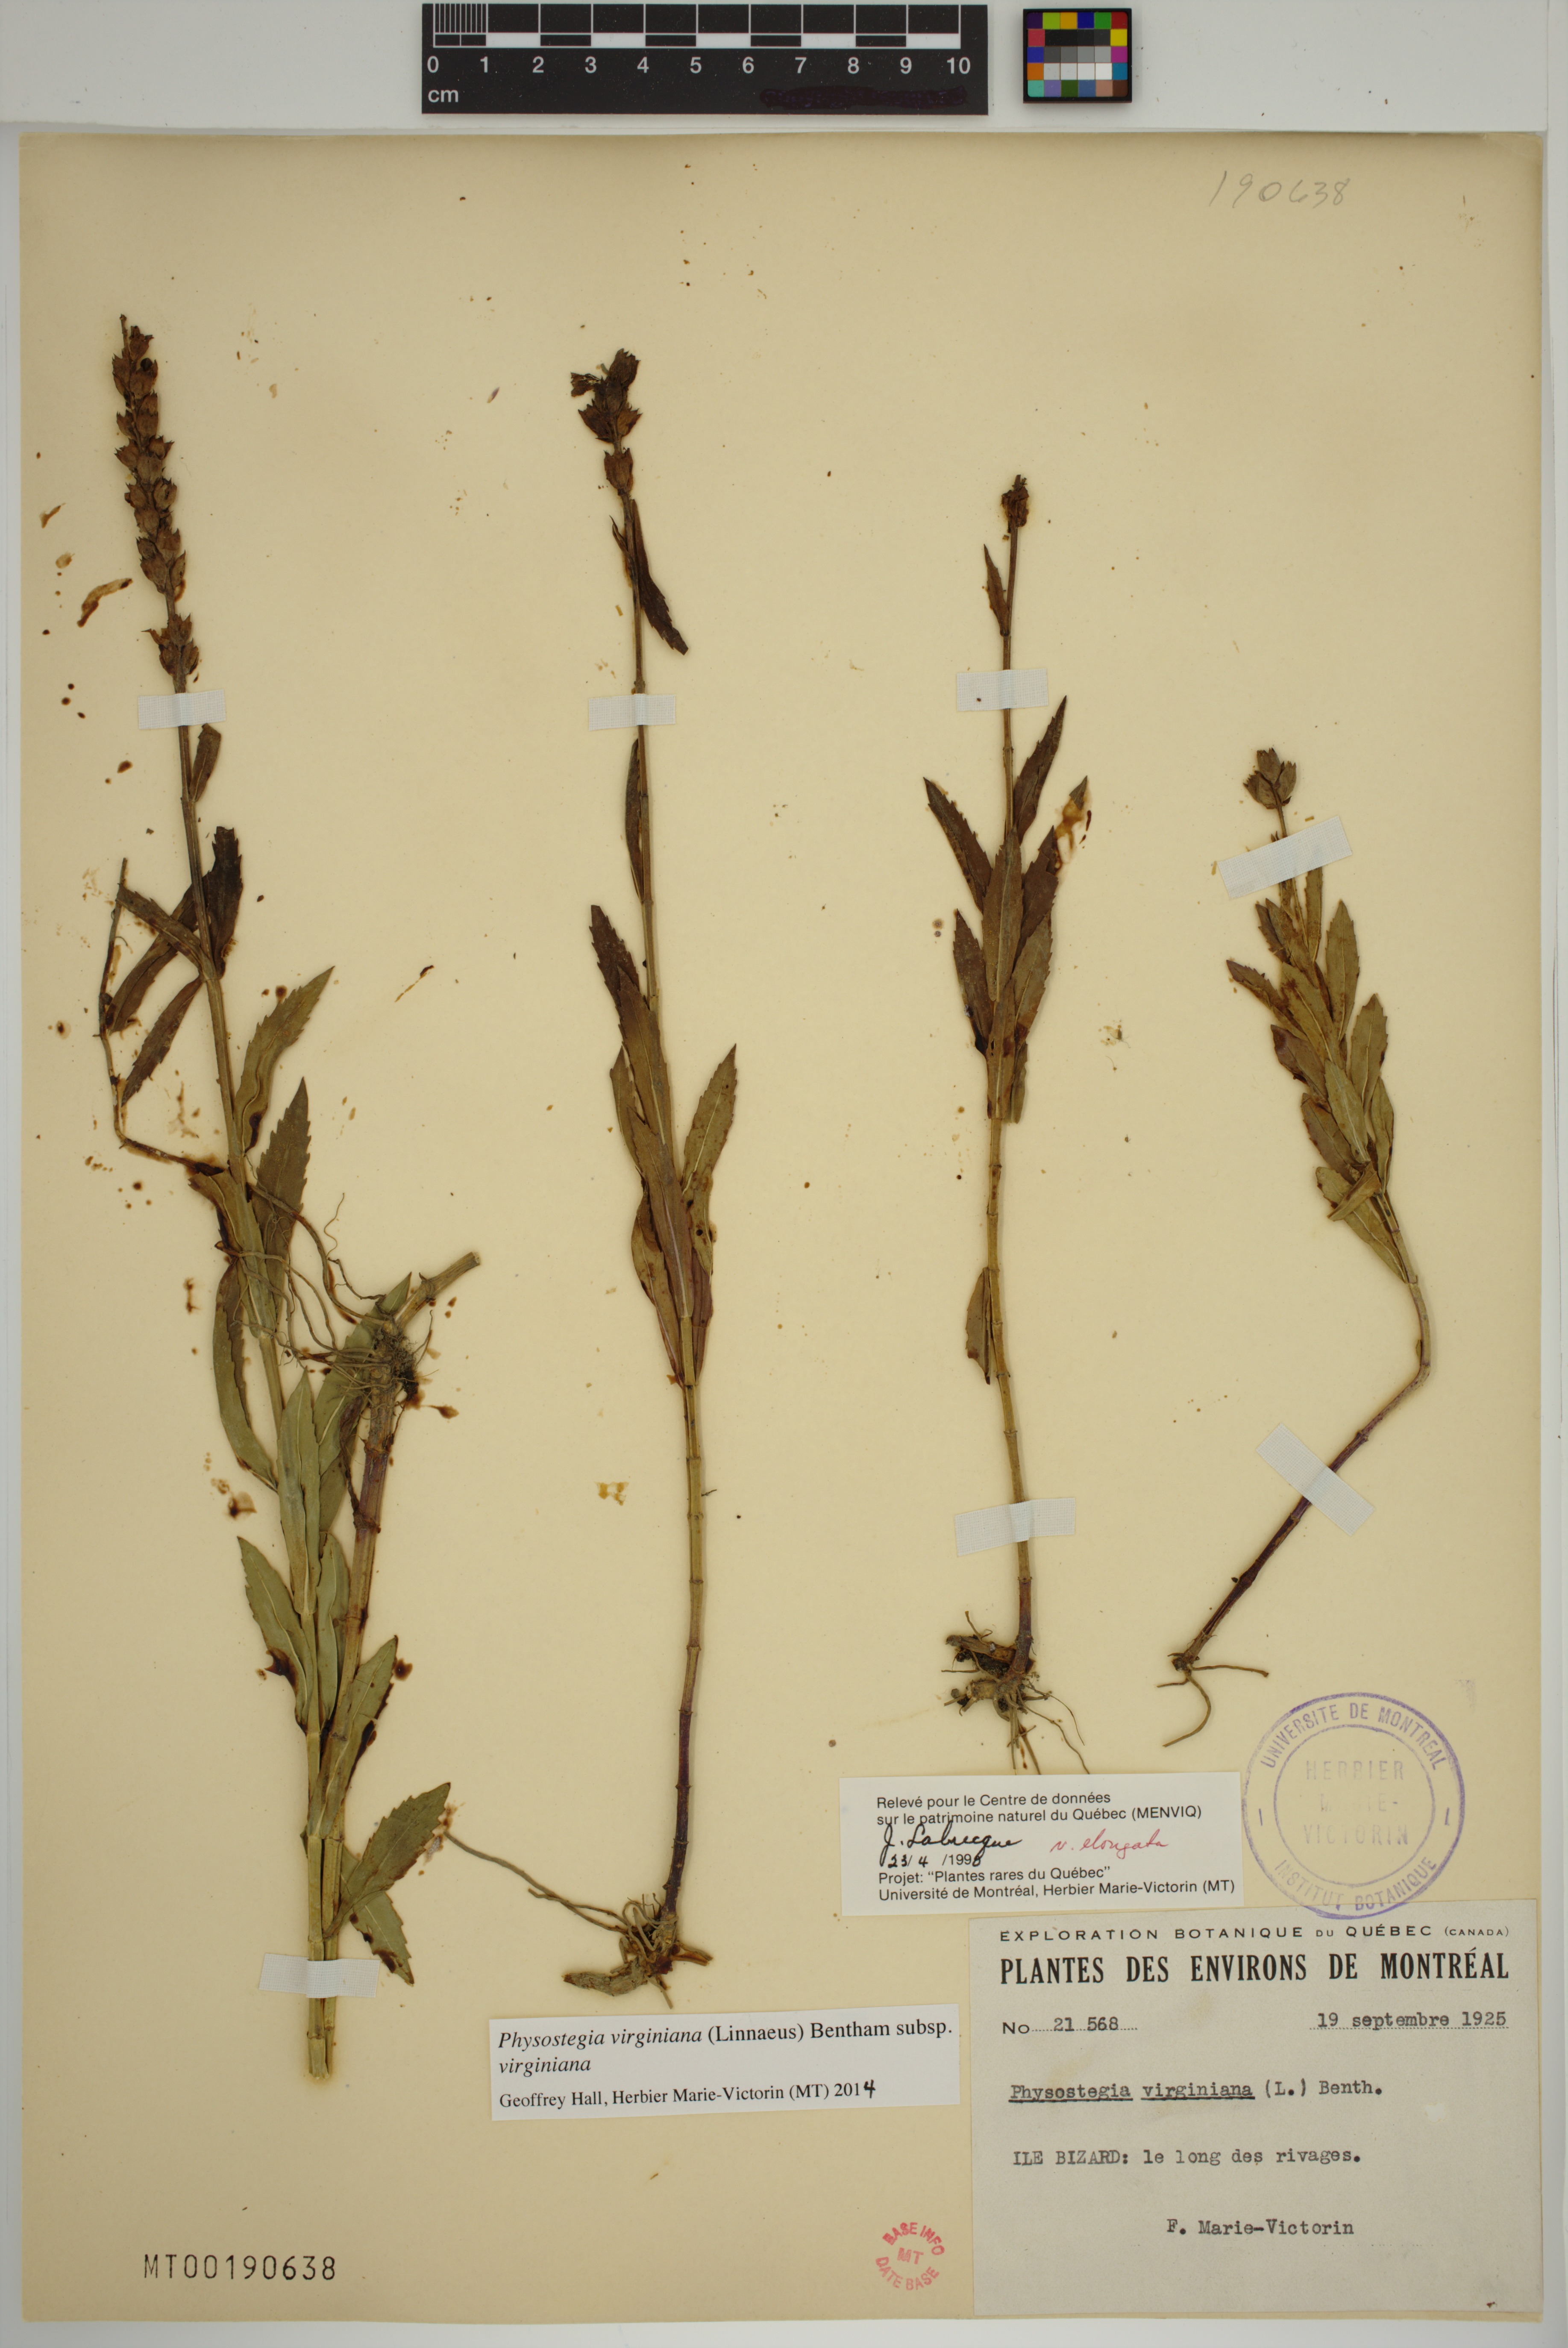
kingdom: Plantae
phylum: Tracheophyta
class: Magnoliopsida
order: Lamiales
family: Lamiaceae
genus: Physostegia
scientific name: Physostegia virginiana
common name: Obedient-plant
